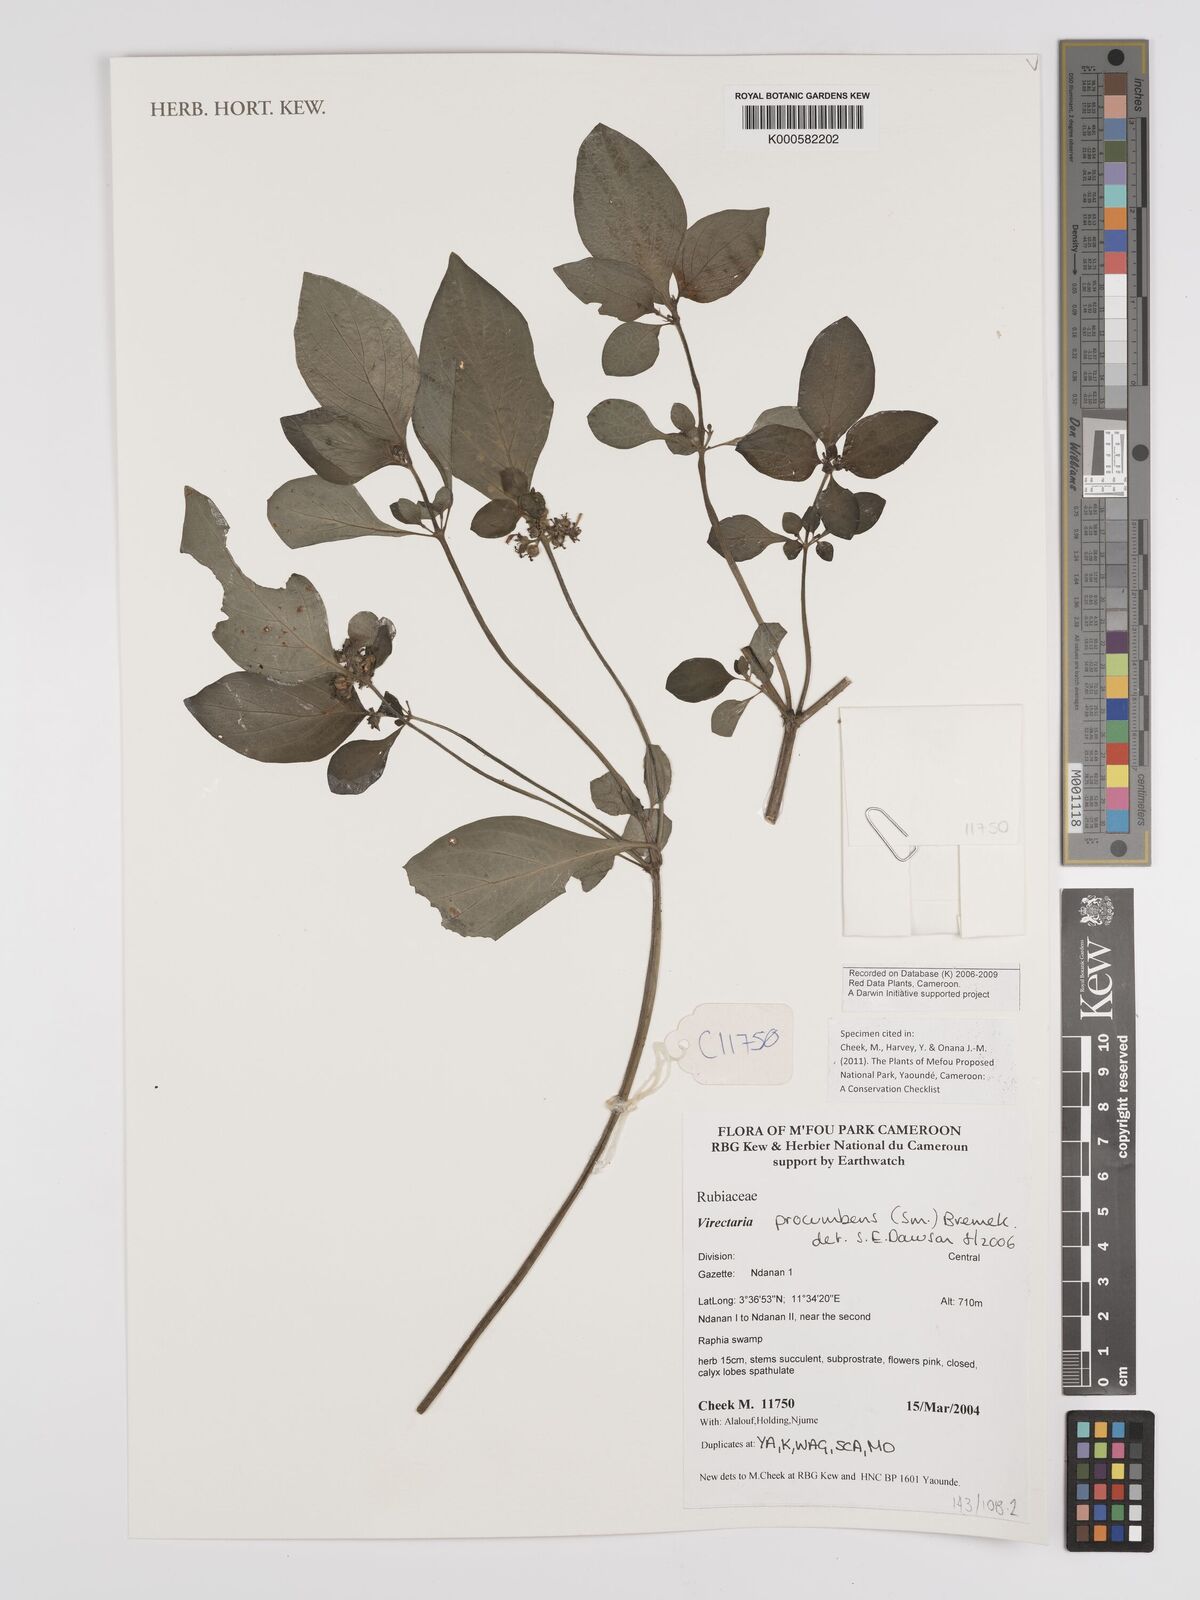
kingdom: Plantae
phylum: Tracheophyta
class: Magnoliopsida
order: Gentianales
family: Rubiaceae
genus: Virectaria
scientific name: Virectaria procumbens
